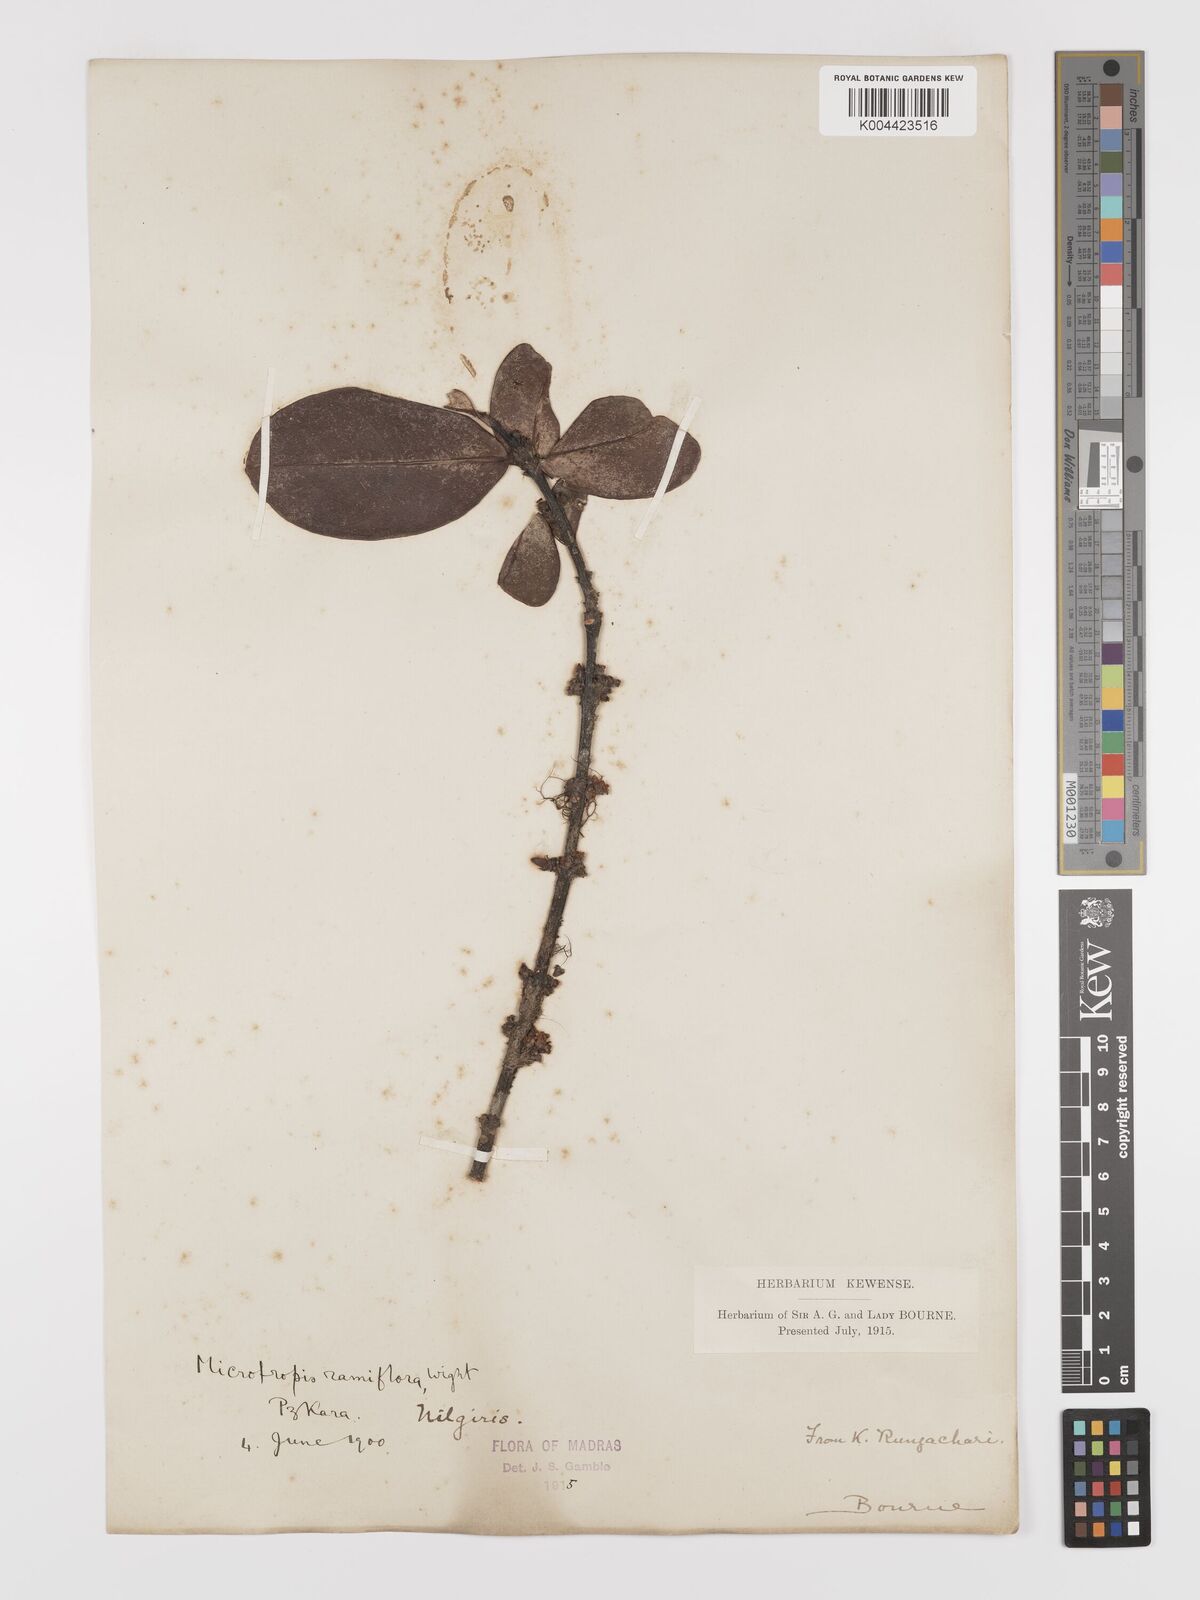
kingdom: Plantae
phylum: Tracheophyta
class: Magnoliopsida
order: Celastrales
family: Celastraceae
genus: Microtropis
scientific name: Microtropis ramiflora
